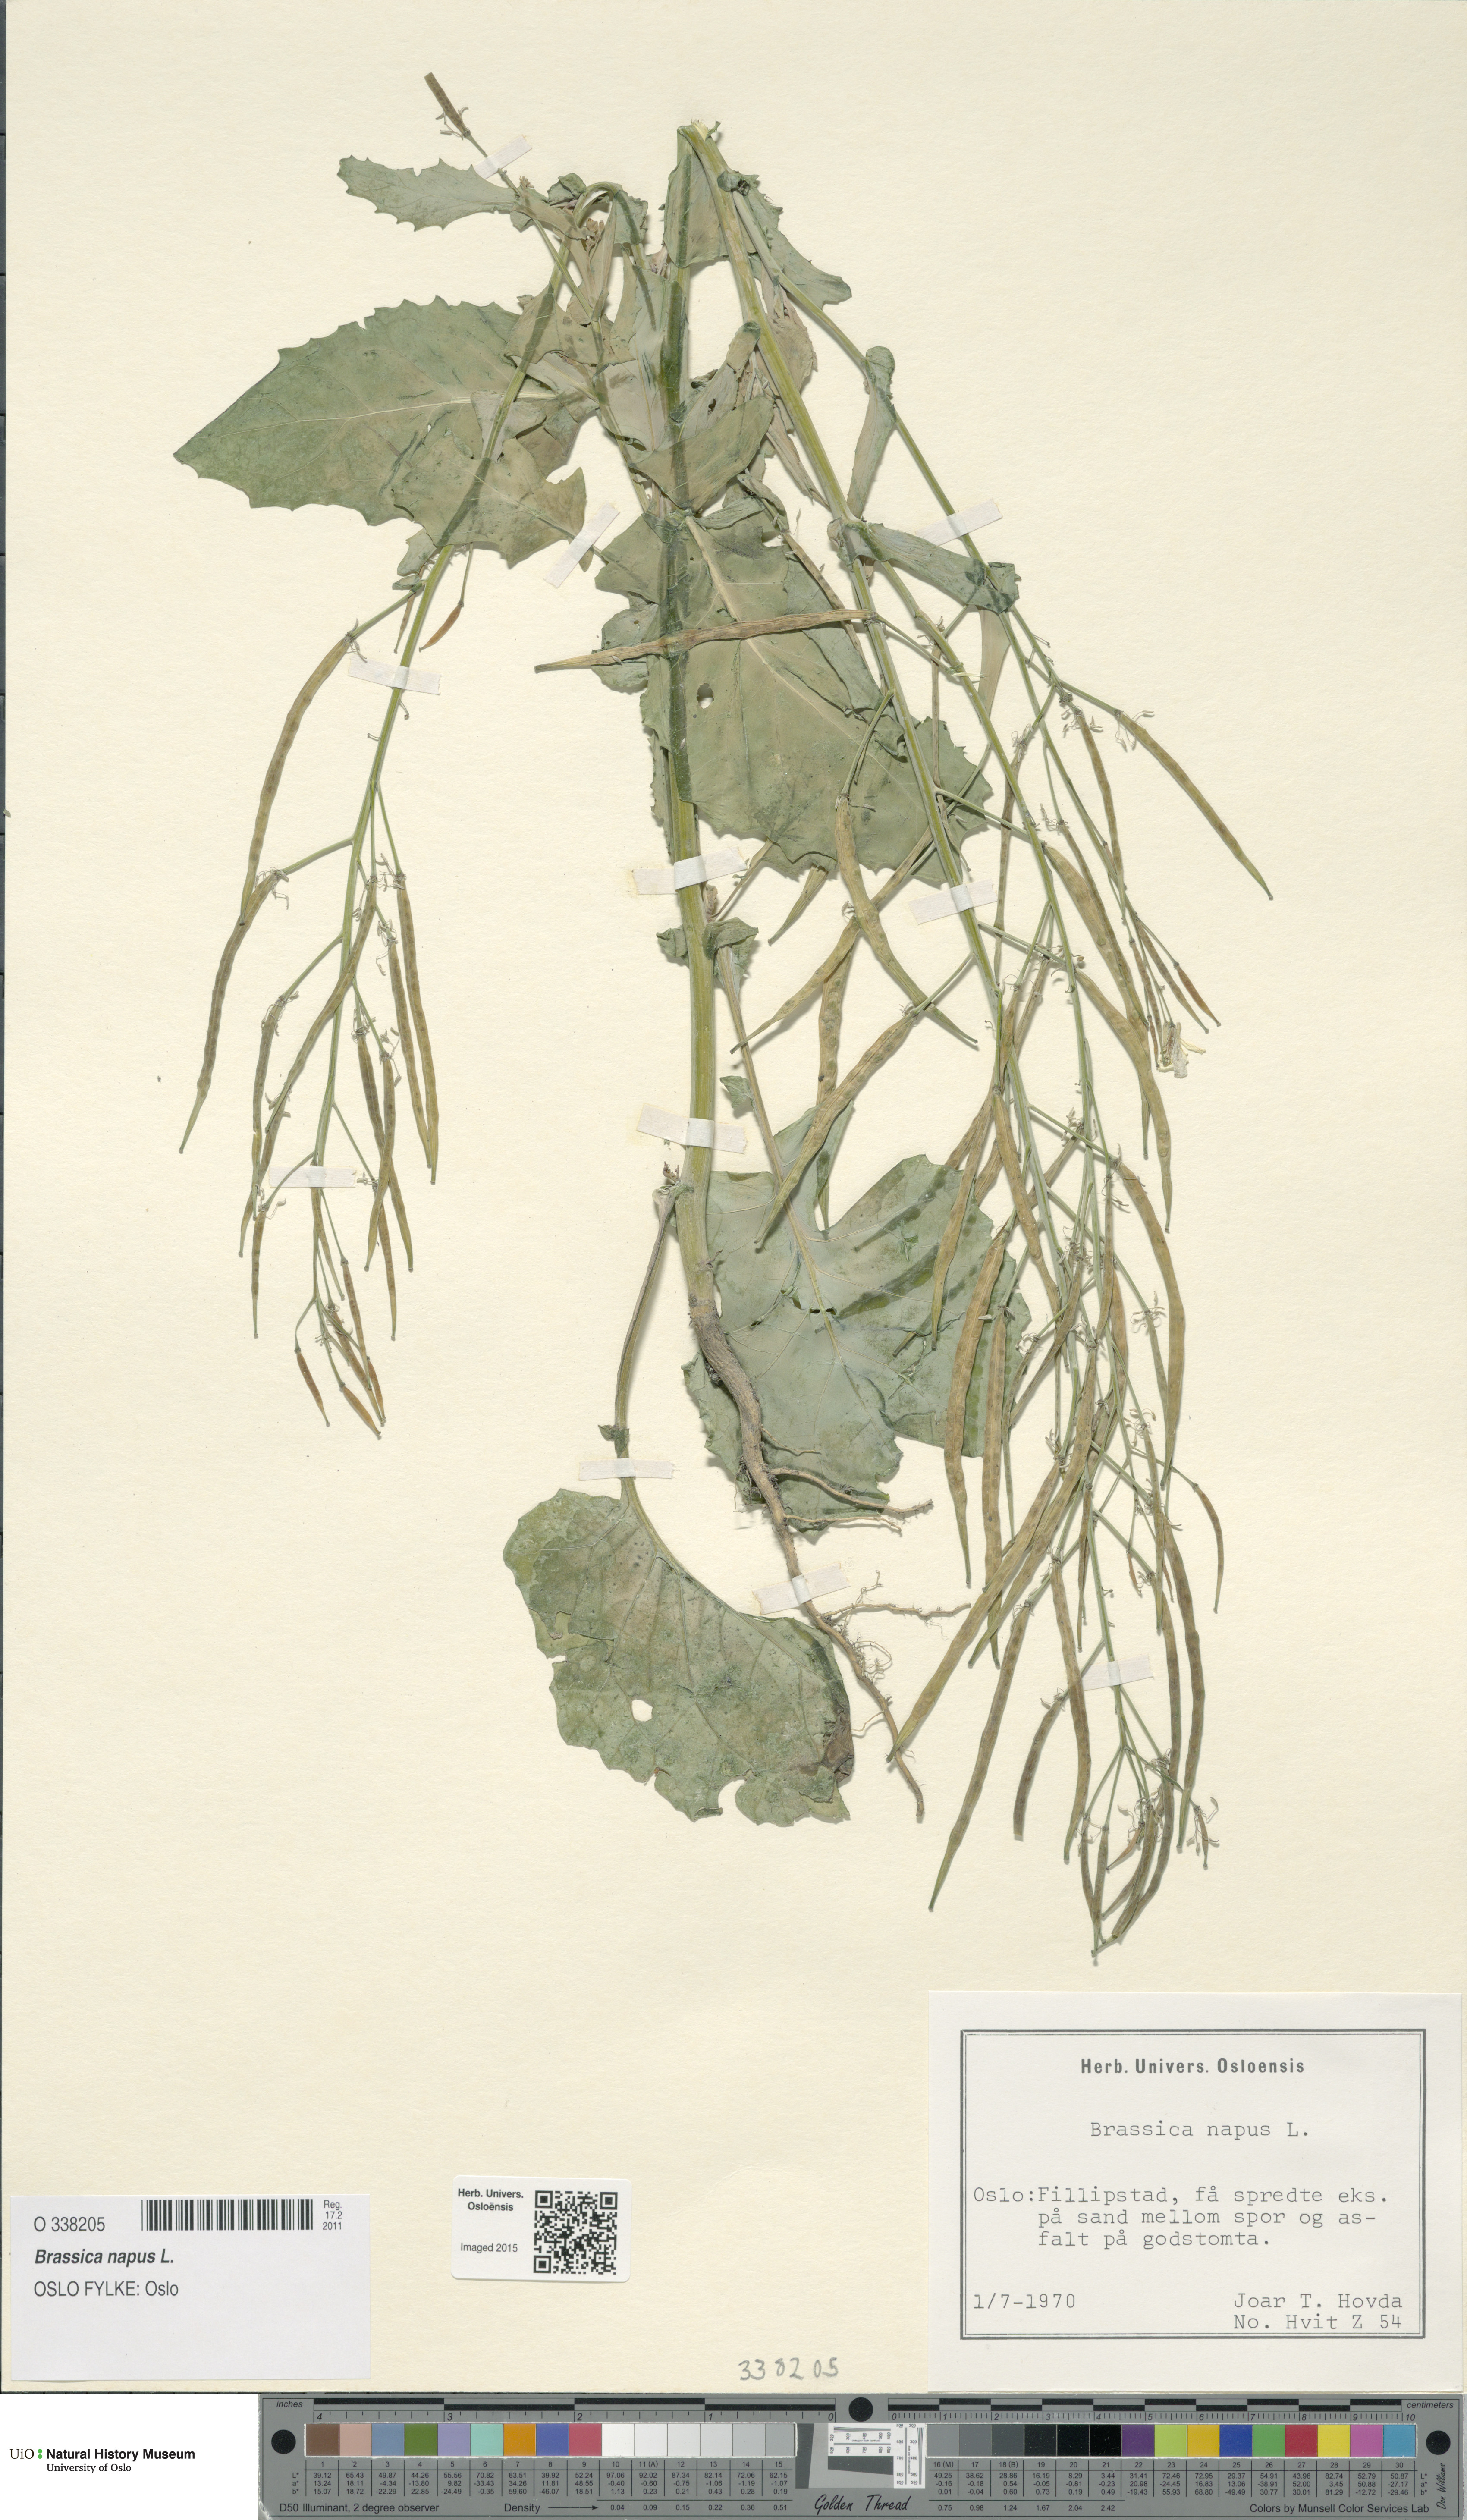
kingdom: Plantae
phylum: Tracheophyta
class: Magnoliopsida
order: Brassicales
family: Brassicaceae
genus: Brassica
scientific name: Brassica napus
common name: Rape
